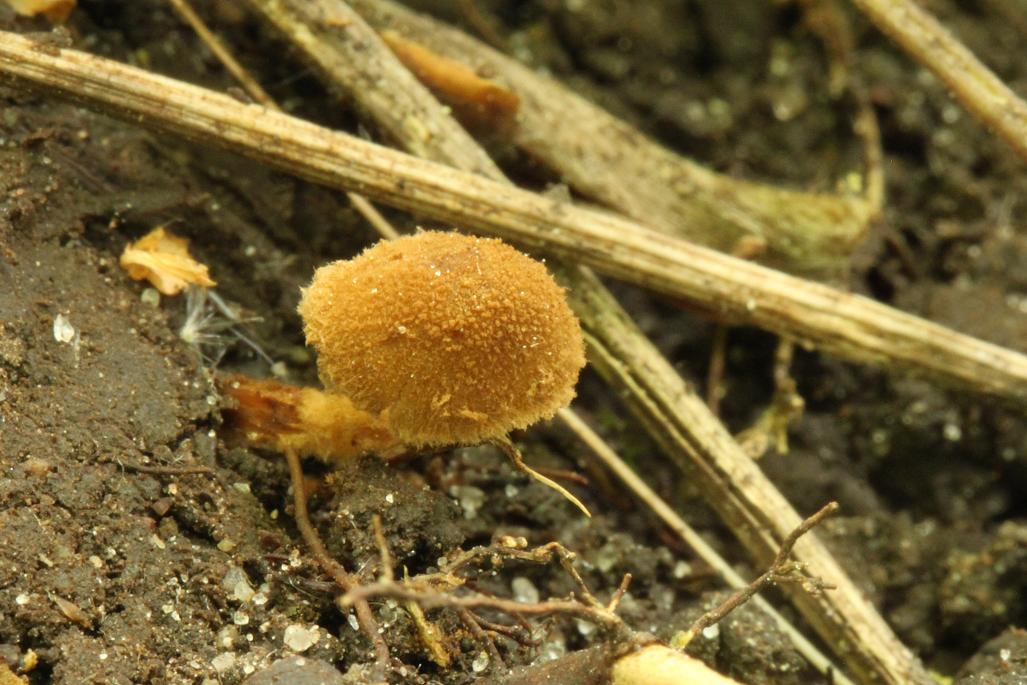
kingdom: Fungi
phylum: Basidiomycota
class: Agaricomycetes
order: Agaricales
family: Tubariaceae
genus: Flammulaster
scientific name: Flammulaster granulosus
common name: gulbrun grynskælhat
